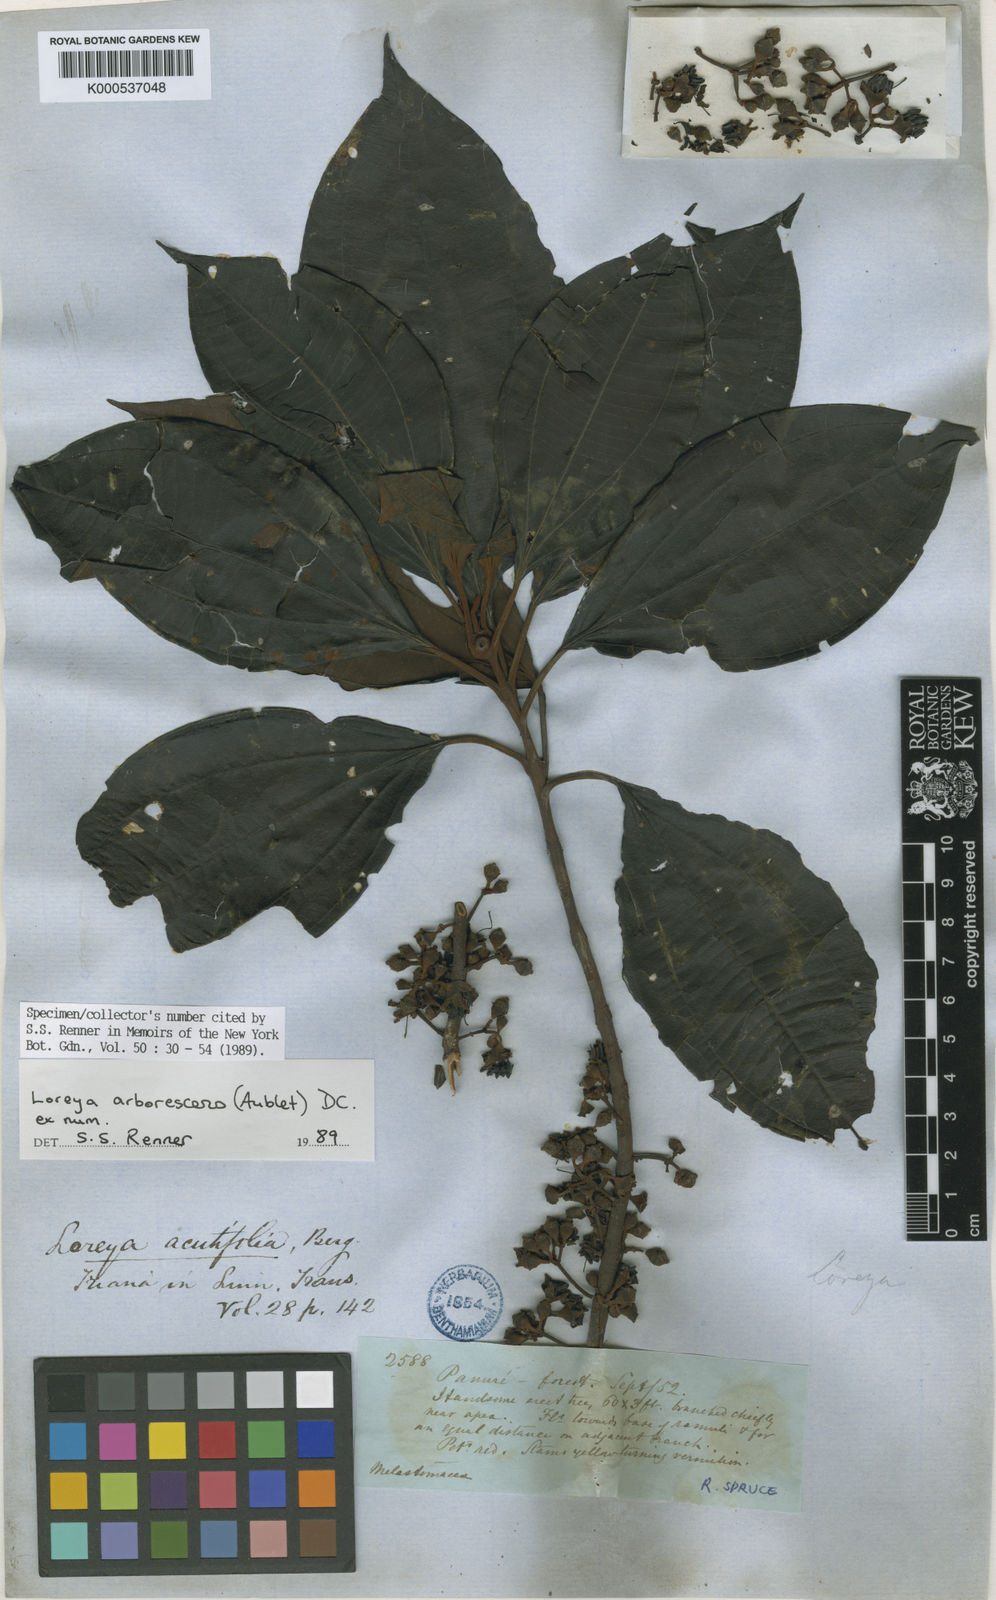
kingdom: Plantae
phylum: Tracheophyta
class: Magnoliopsida
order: Myrtales
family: Melastomataceae
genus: Bellucia
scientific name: Bellucia arborescens
